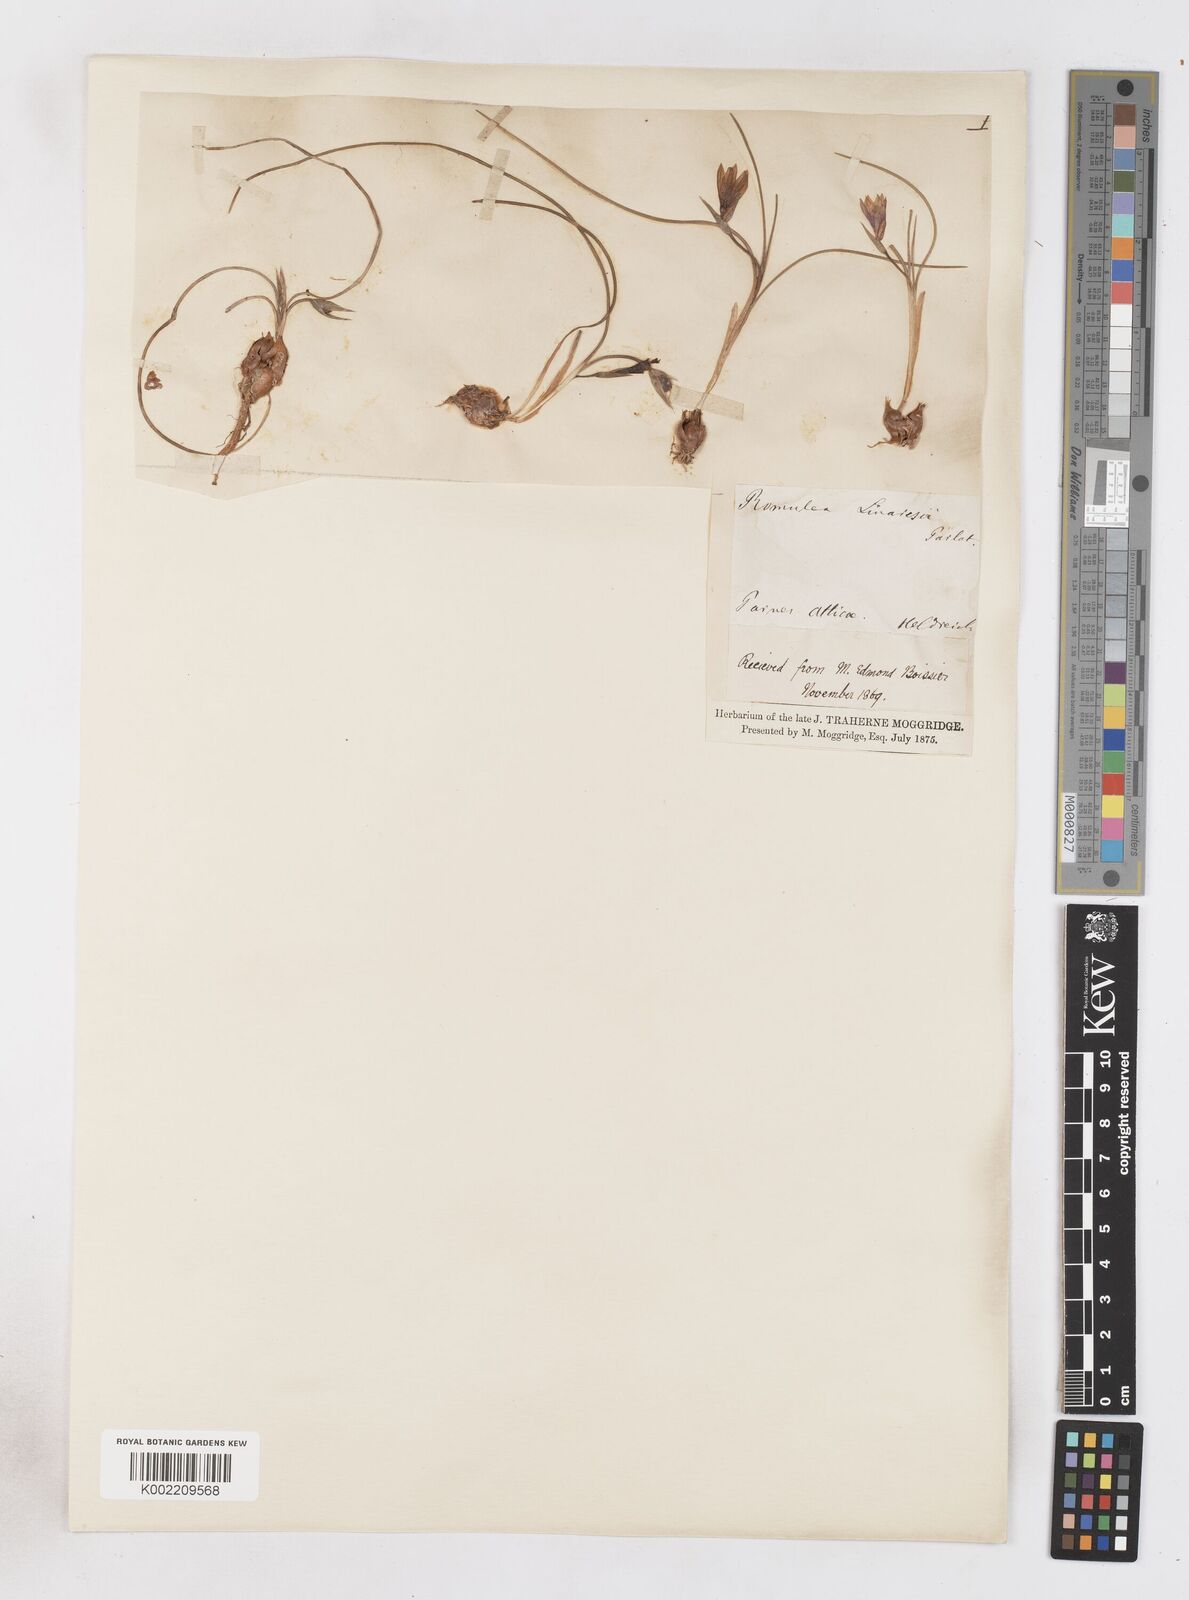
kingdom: Plantae
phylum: Tracheophyta
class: Liliopsida
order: Asparagales
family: Iridaceae
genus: Romulea
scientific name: Romulea linaresii
